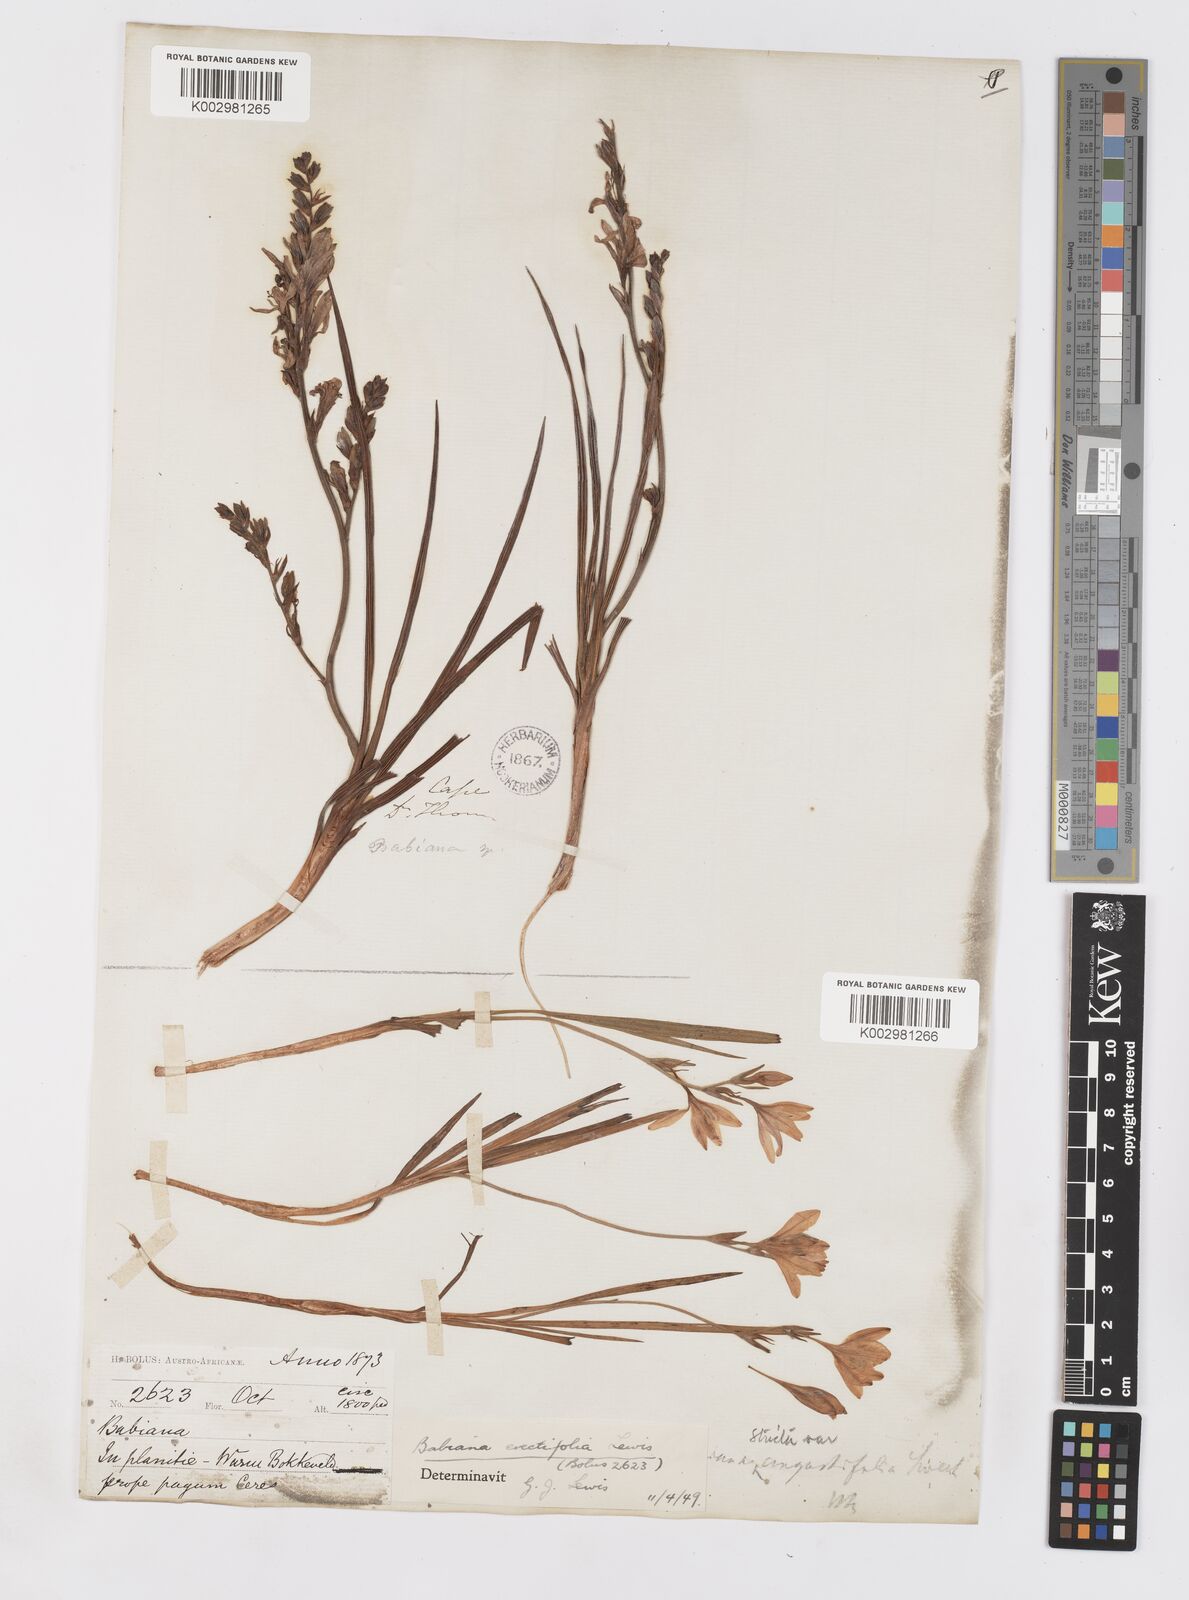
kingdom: Plantae
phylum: Tracheophyta
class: Liliopsida
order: Asparagales
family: Iridaceae
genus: Babiana
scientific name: Babiana regia
